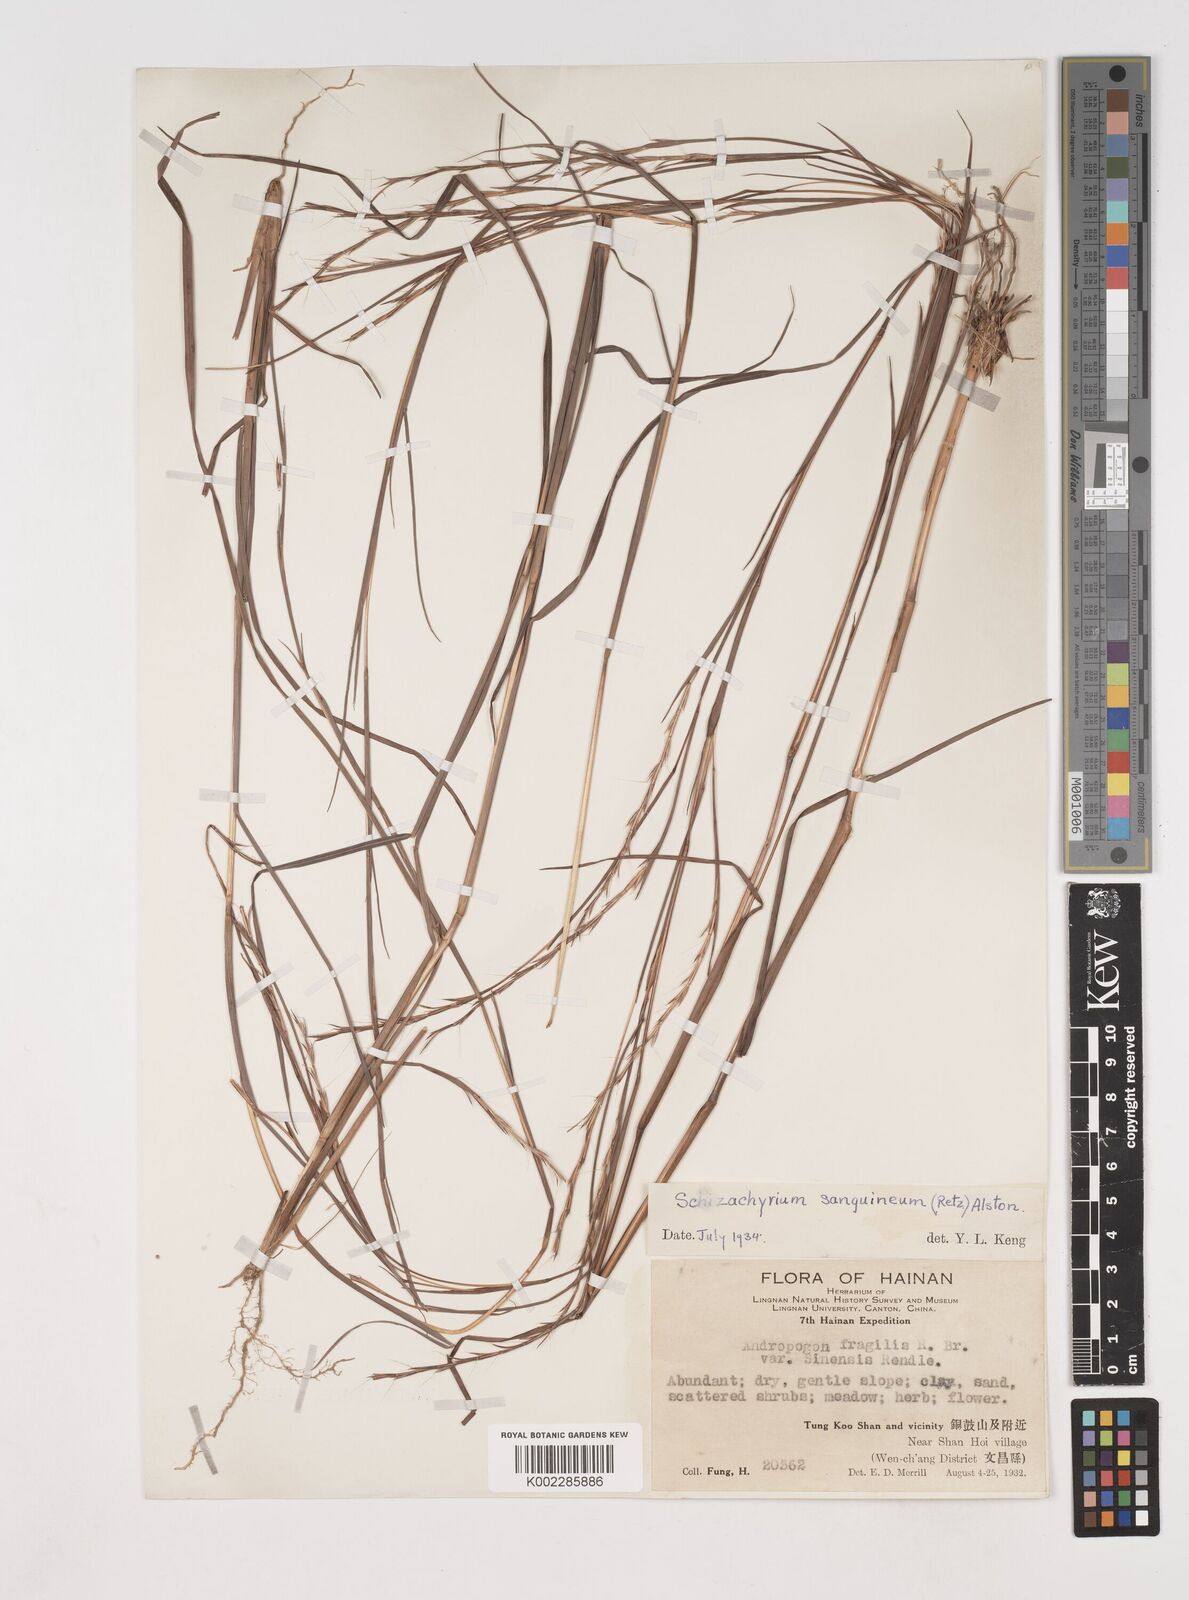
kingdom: Plantae
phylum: Tracheophyta
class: Liliopsida
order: Poales
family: Poaceae
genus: Schizachyrium
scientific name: Schizachyrium sanguineum
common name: Crimson bluestem
